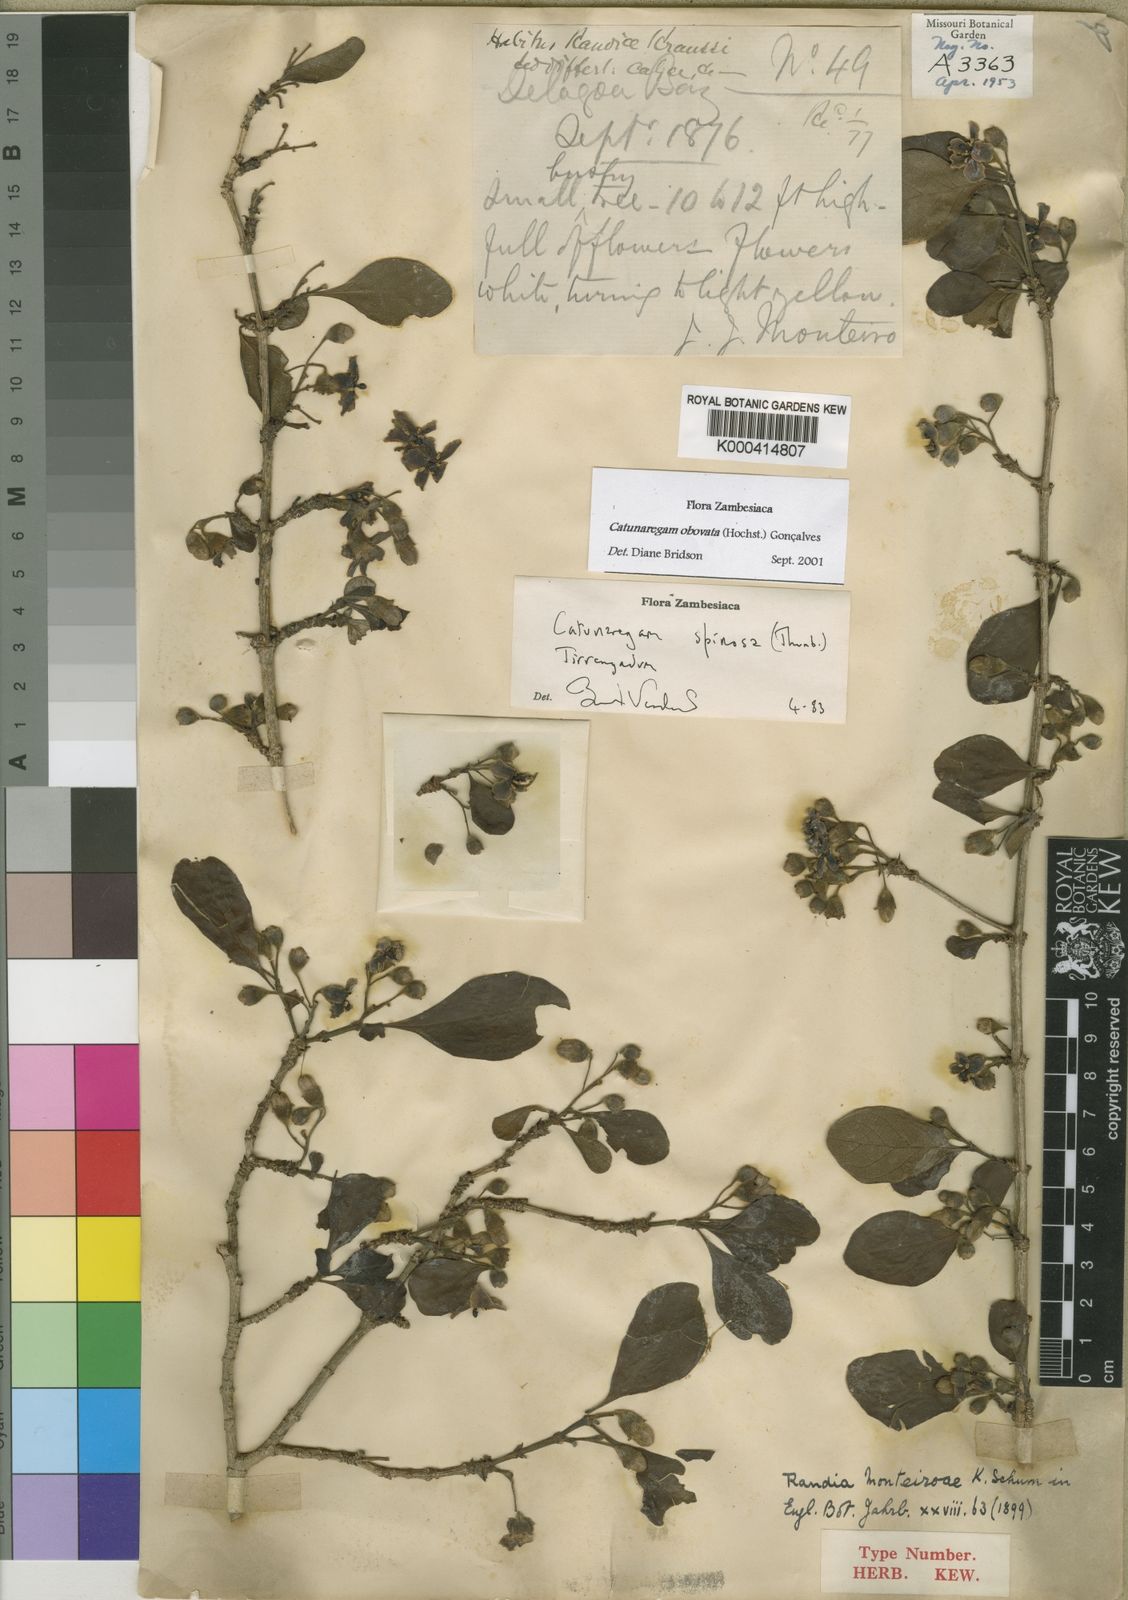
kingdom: Plantae
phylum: Tracheophyta
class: Magnoliopsida
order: Gentianales
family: Rubiaceae
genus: Catunaregam
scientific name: Catunaregam
